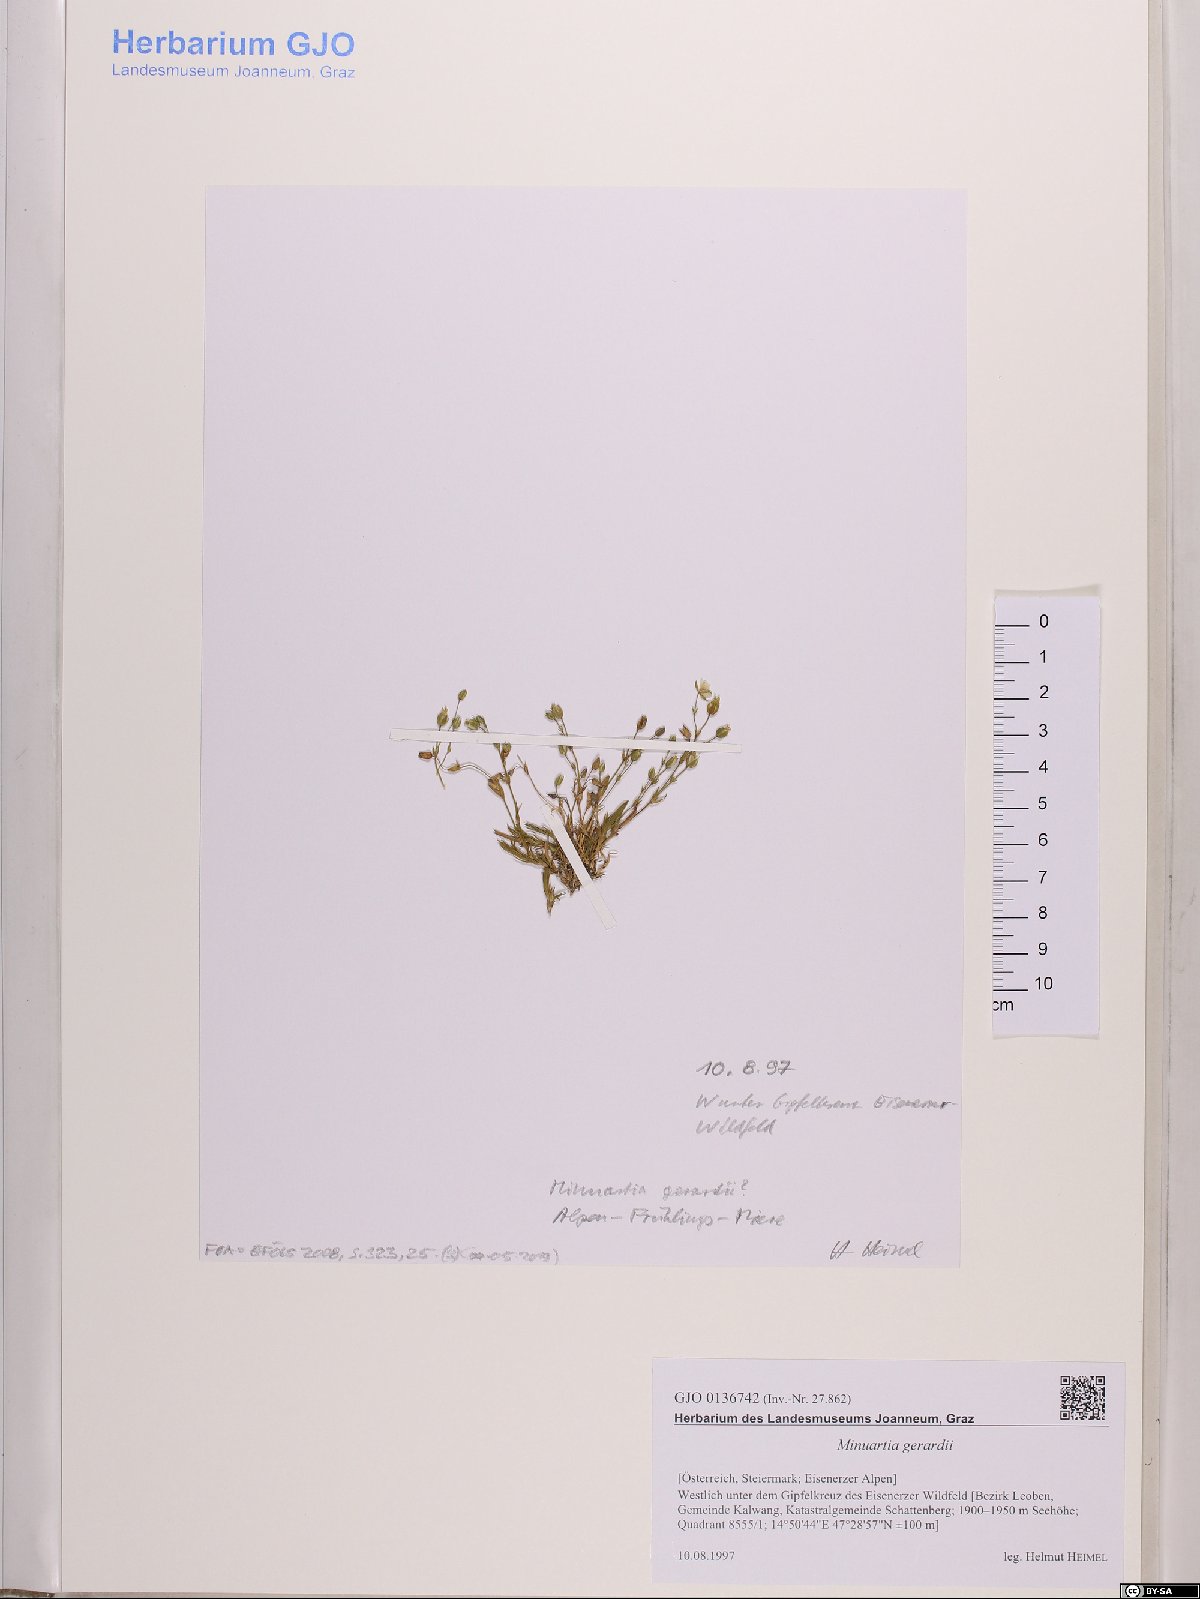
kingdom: Plantae
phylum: Tracheophyta
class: Magnoliopsida
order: Caryophyllales
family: Caryophyllaceae
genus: Sabulina
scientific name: Sabulina verna
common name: Spring sandwort
